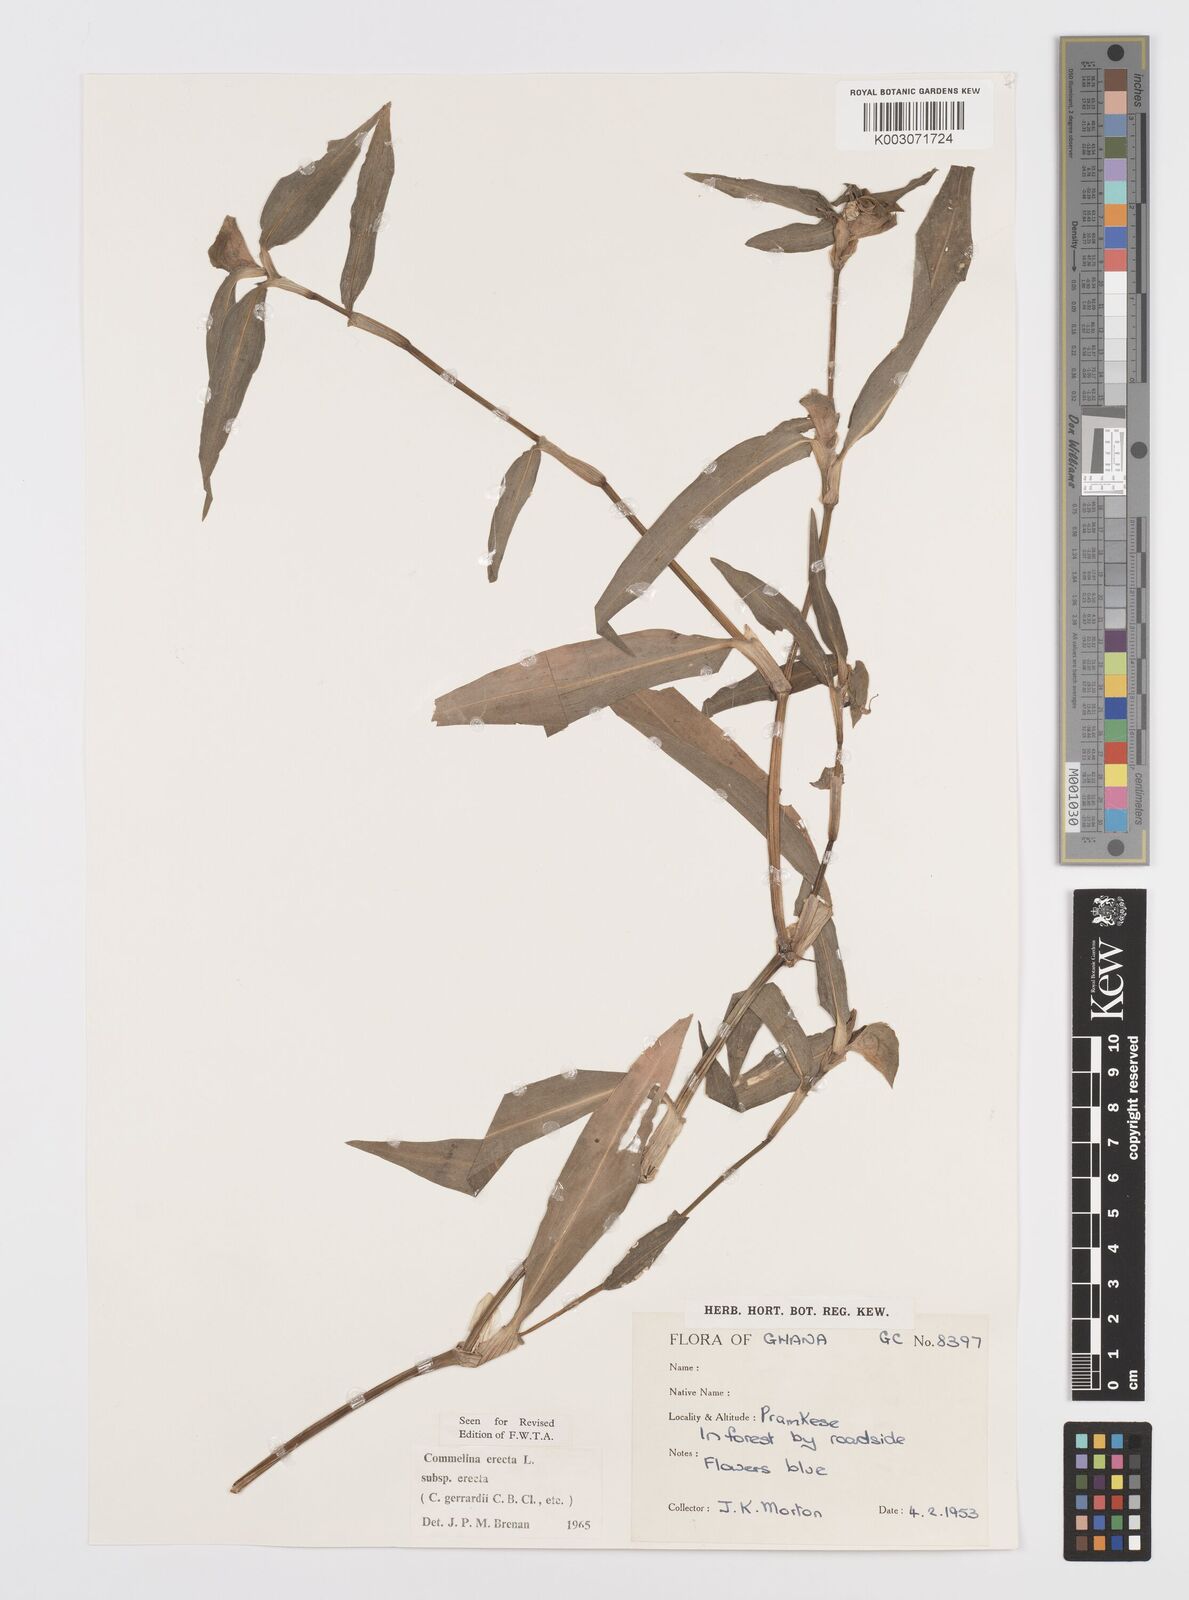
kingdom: Plantae
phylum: Tracheophyta
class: Liliopsida
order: Commelinales
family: Commelinaceae
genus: Commelina
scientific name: Commelina erecta
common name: Blousel blommetjie
